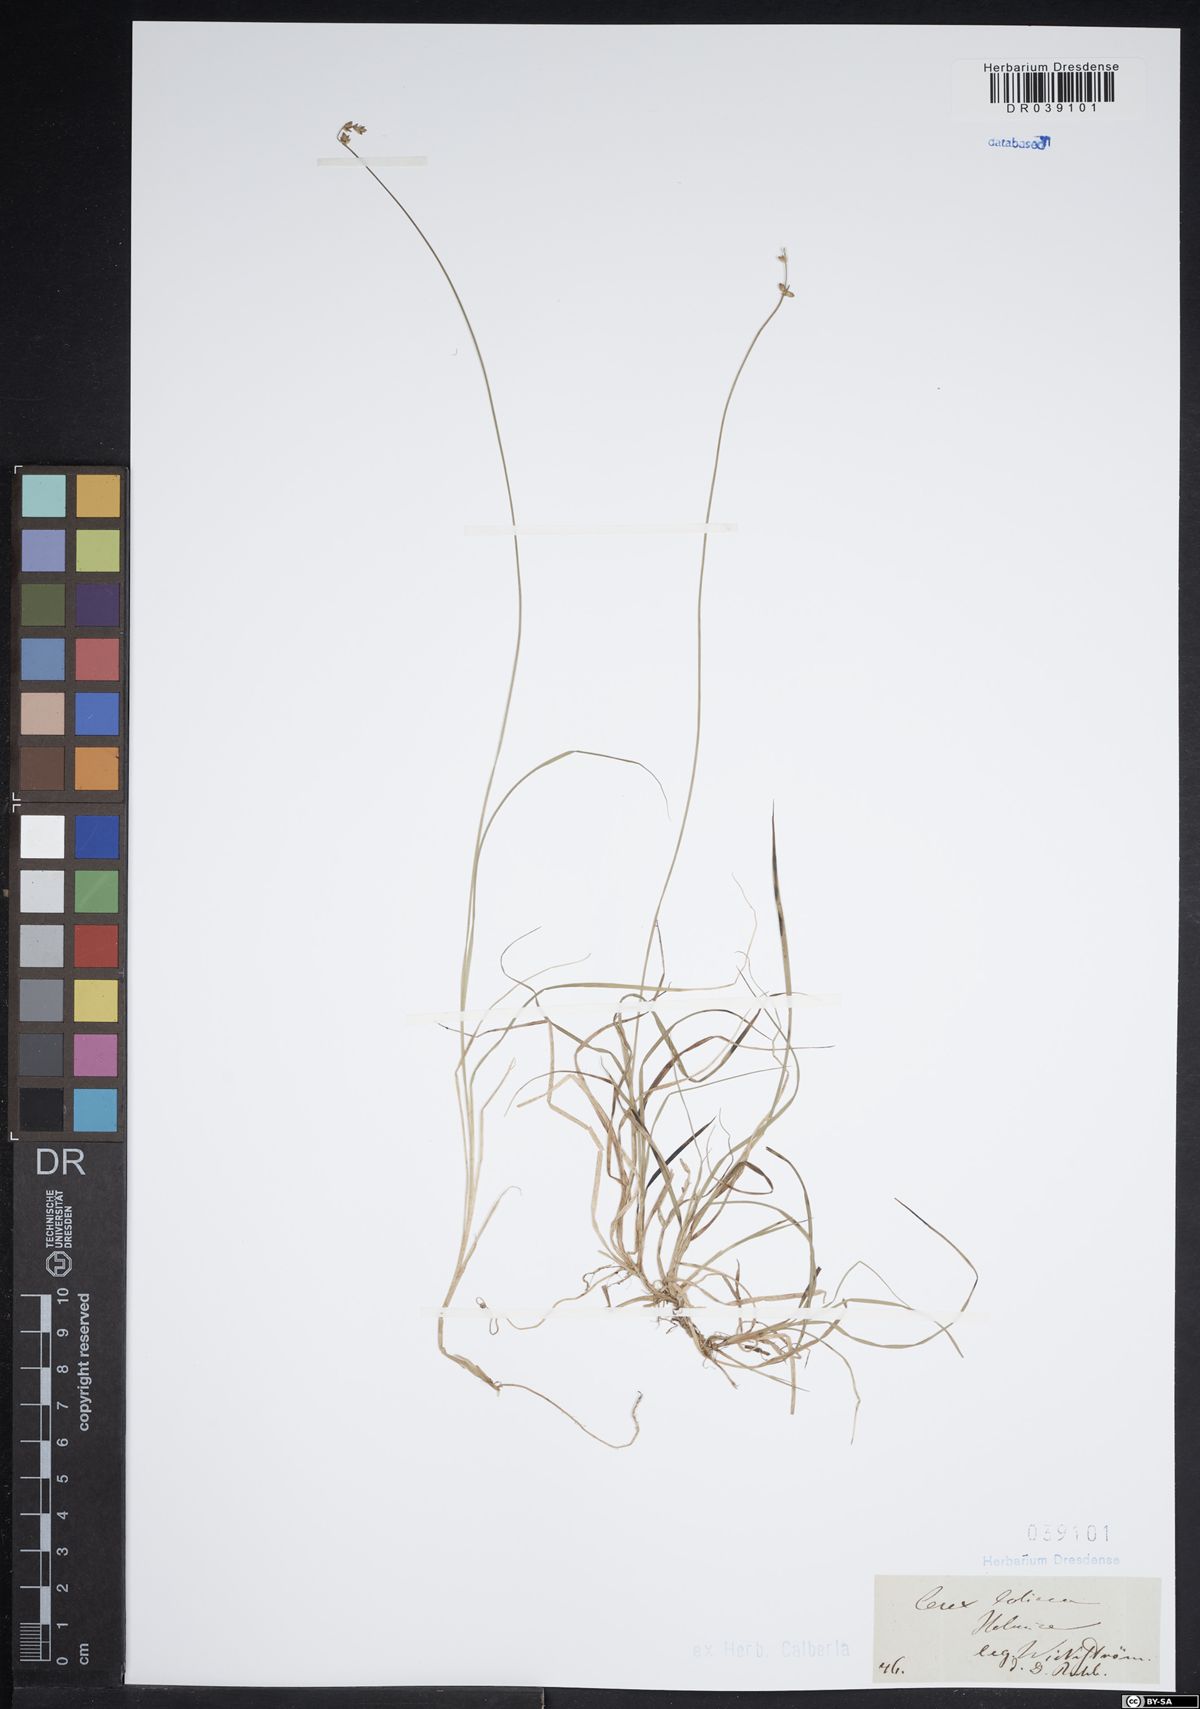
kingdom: Plantae
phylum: Tracheophyta
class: Liliopsida
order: Poales
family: Cyperaceae
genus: Carex
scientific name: Carex loliacea
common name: Ryegrass sedge
